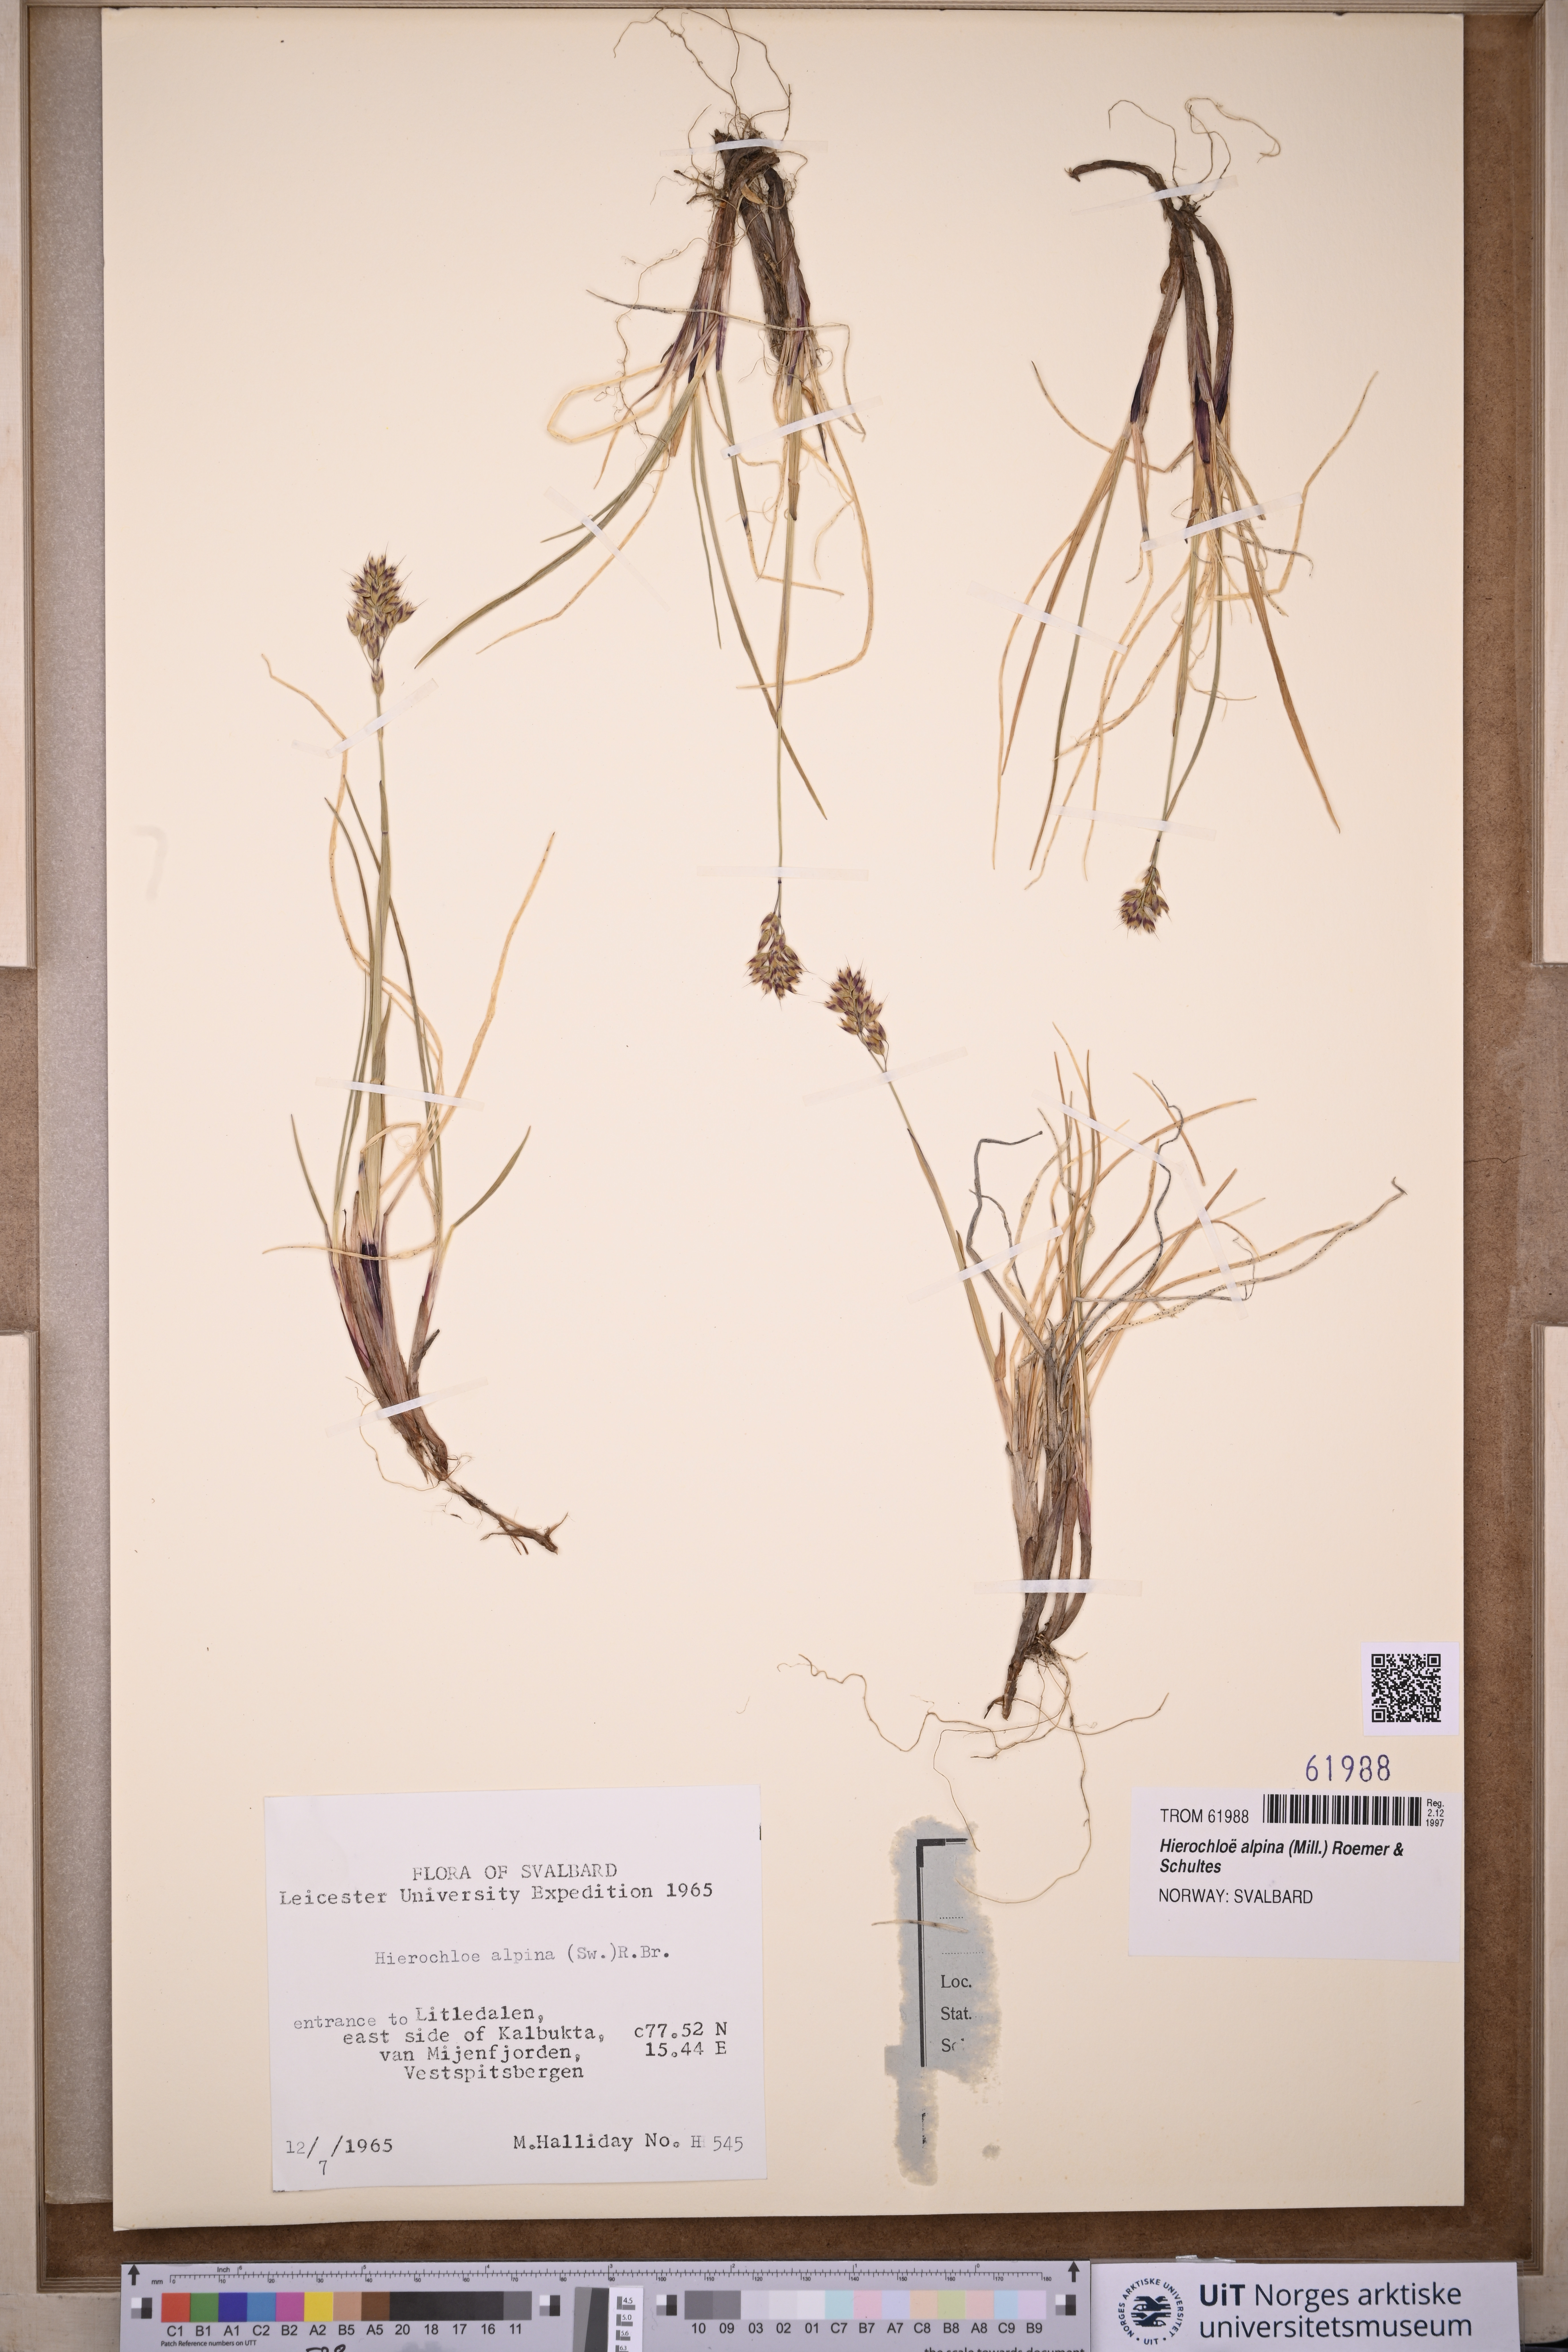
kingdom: Plantae
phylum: Tracheophyta
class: Liliopsida
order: Poales
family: Poaceae
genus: Anthoxanthum
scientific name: Anthoxanthum monticola
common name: Alpine sweetgrass
